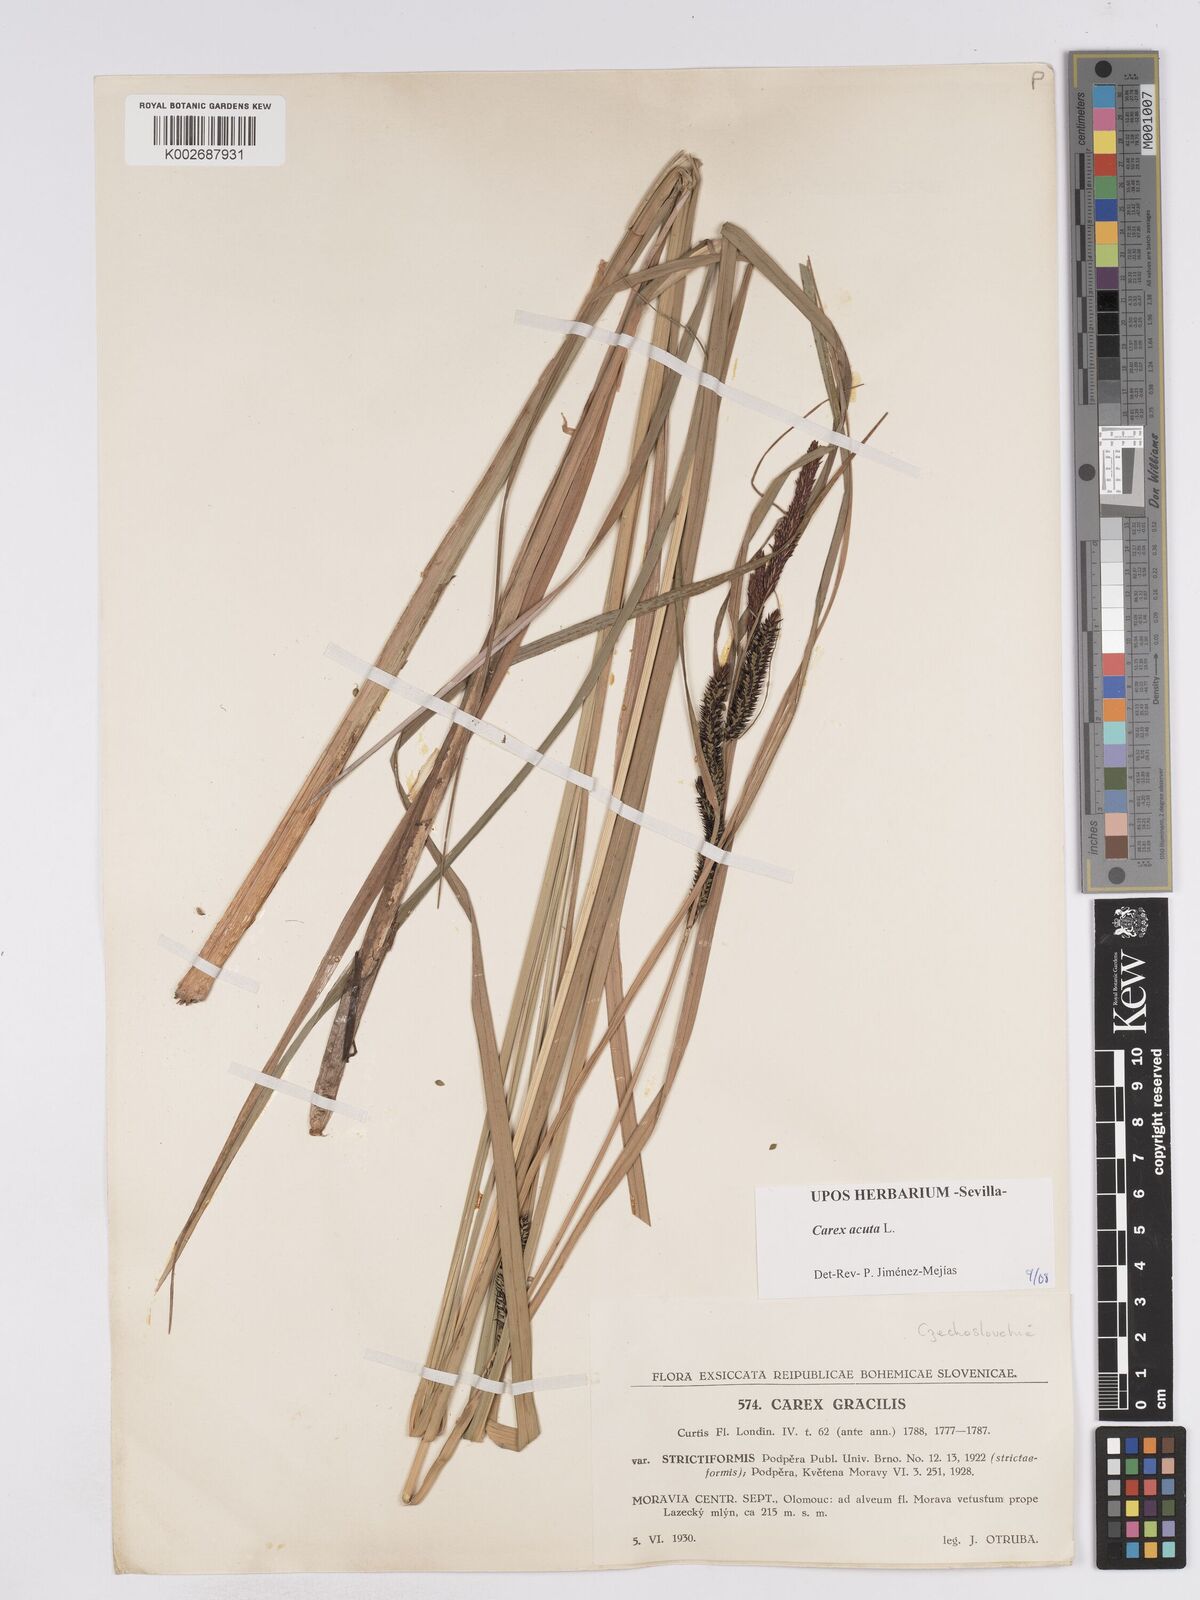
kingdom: Plantae
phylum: Tracheophyta
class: Liliopsida
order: Poales
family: Cyperaceae
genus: Carex
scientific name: Carex acuta
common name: Slender tufted-sedge
